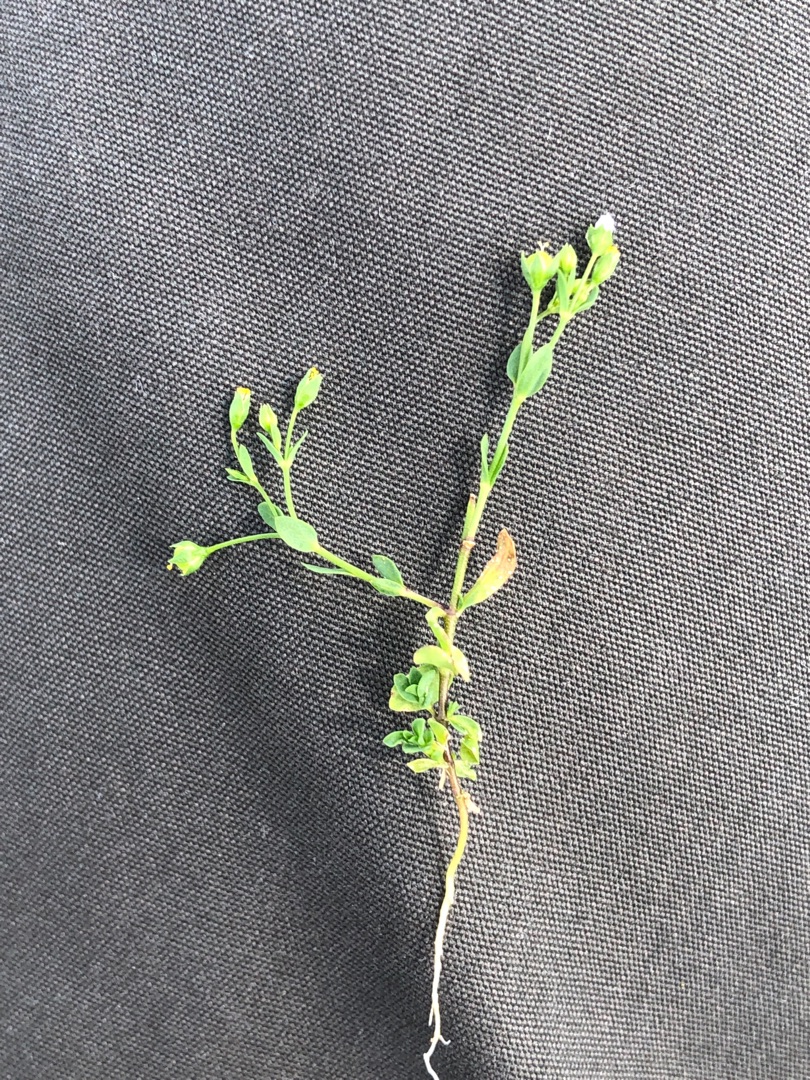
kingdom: Plantae
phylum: Tracheophyta
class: Magnoliopsida
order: Malpighiales
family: Linaceae
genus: Linum
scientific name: Linum catharticum
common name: Vild hør
